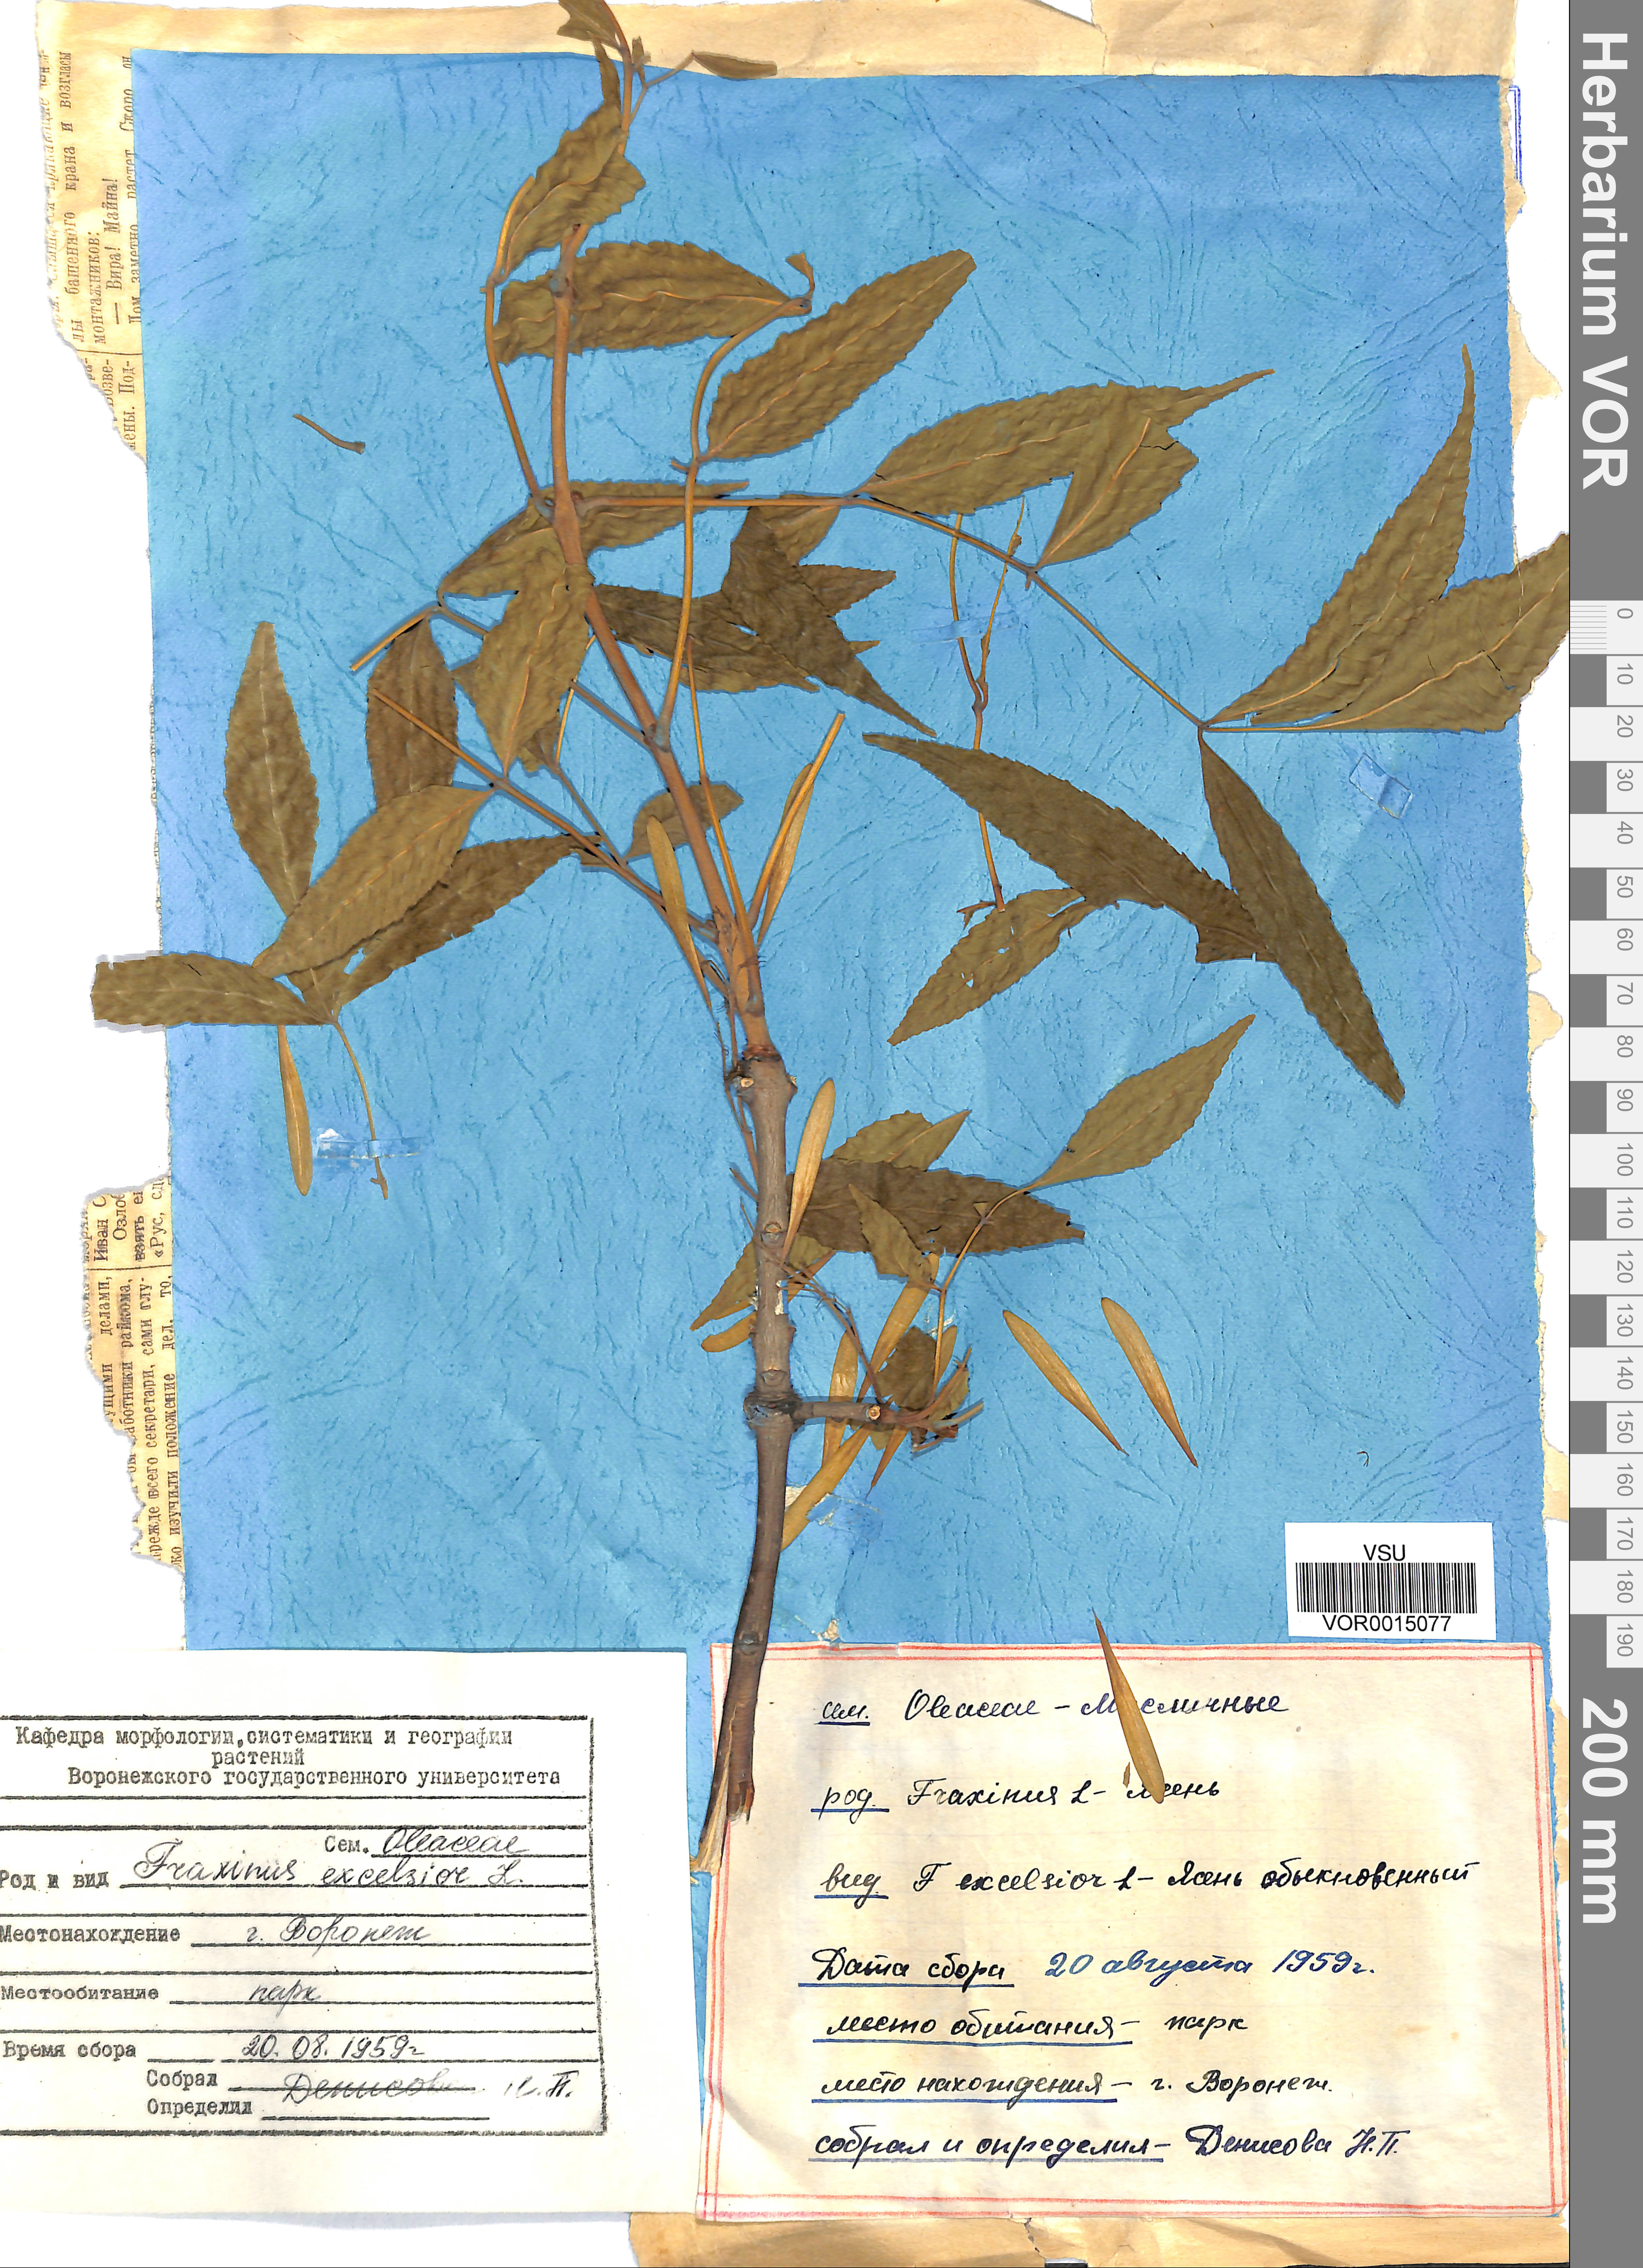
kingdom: Plantae
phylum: Tracheophyta
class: Magnoliopsida
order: Lamiales
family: Oleaceae
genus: Fraxinus
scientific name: Fraxinus excelsior
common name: European ash
